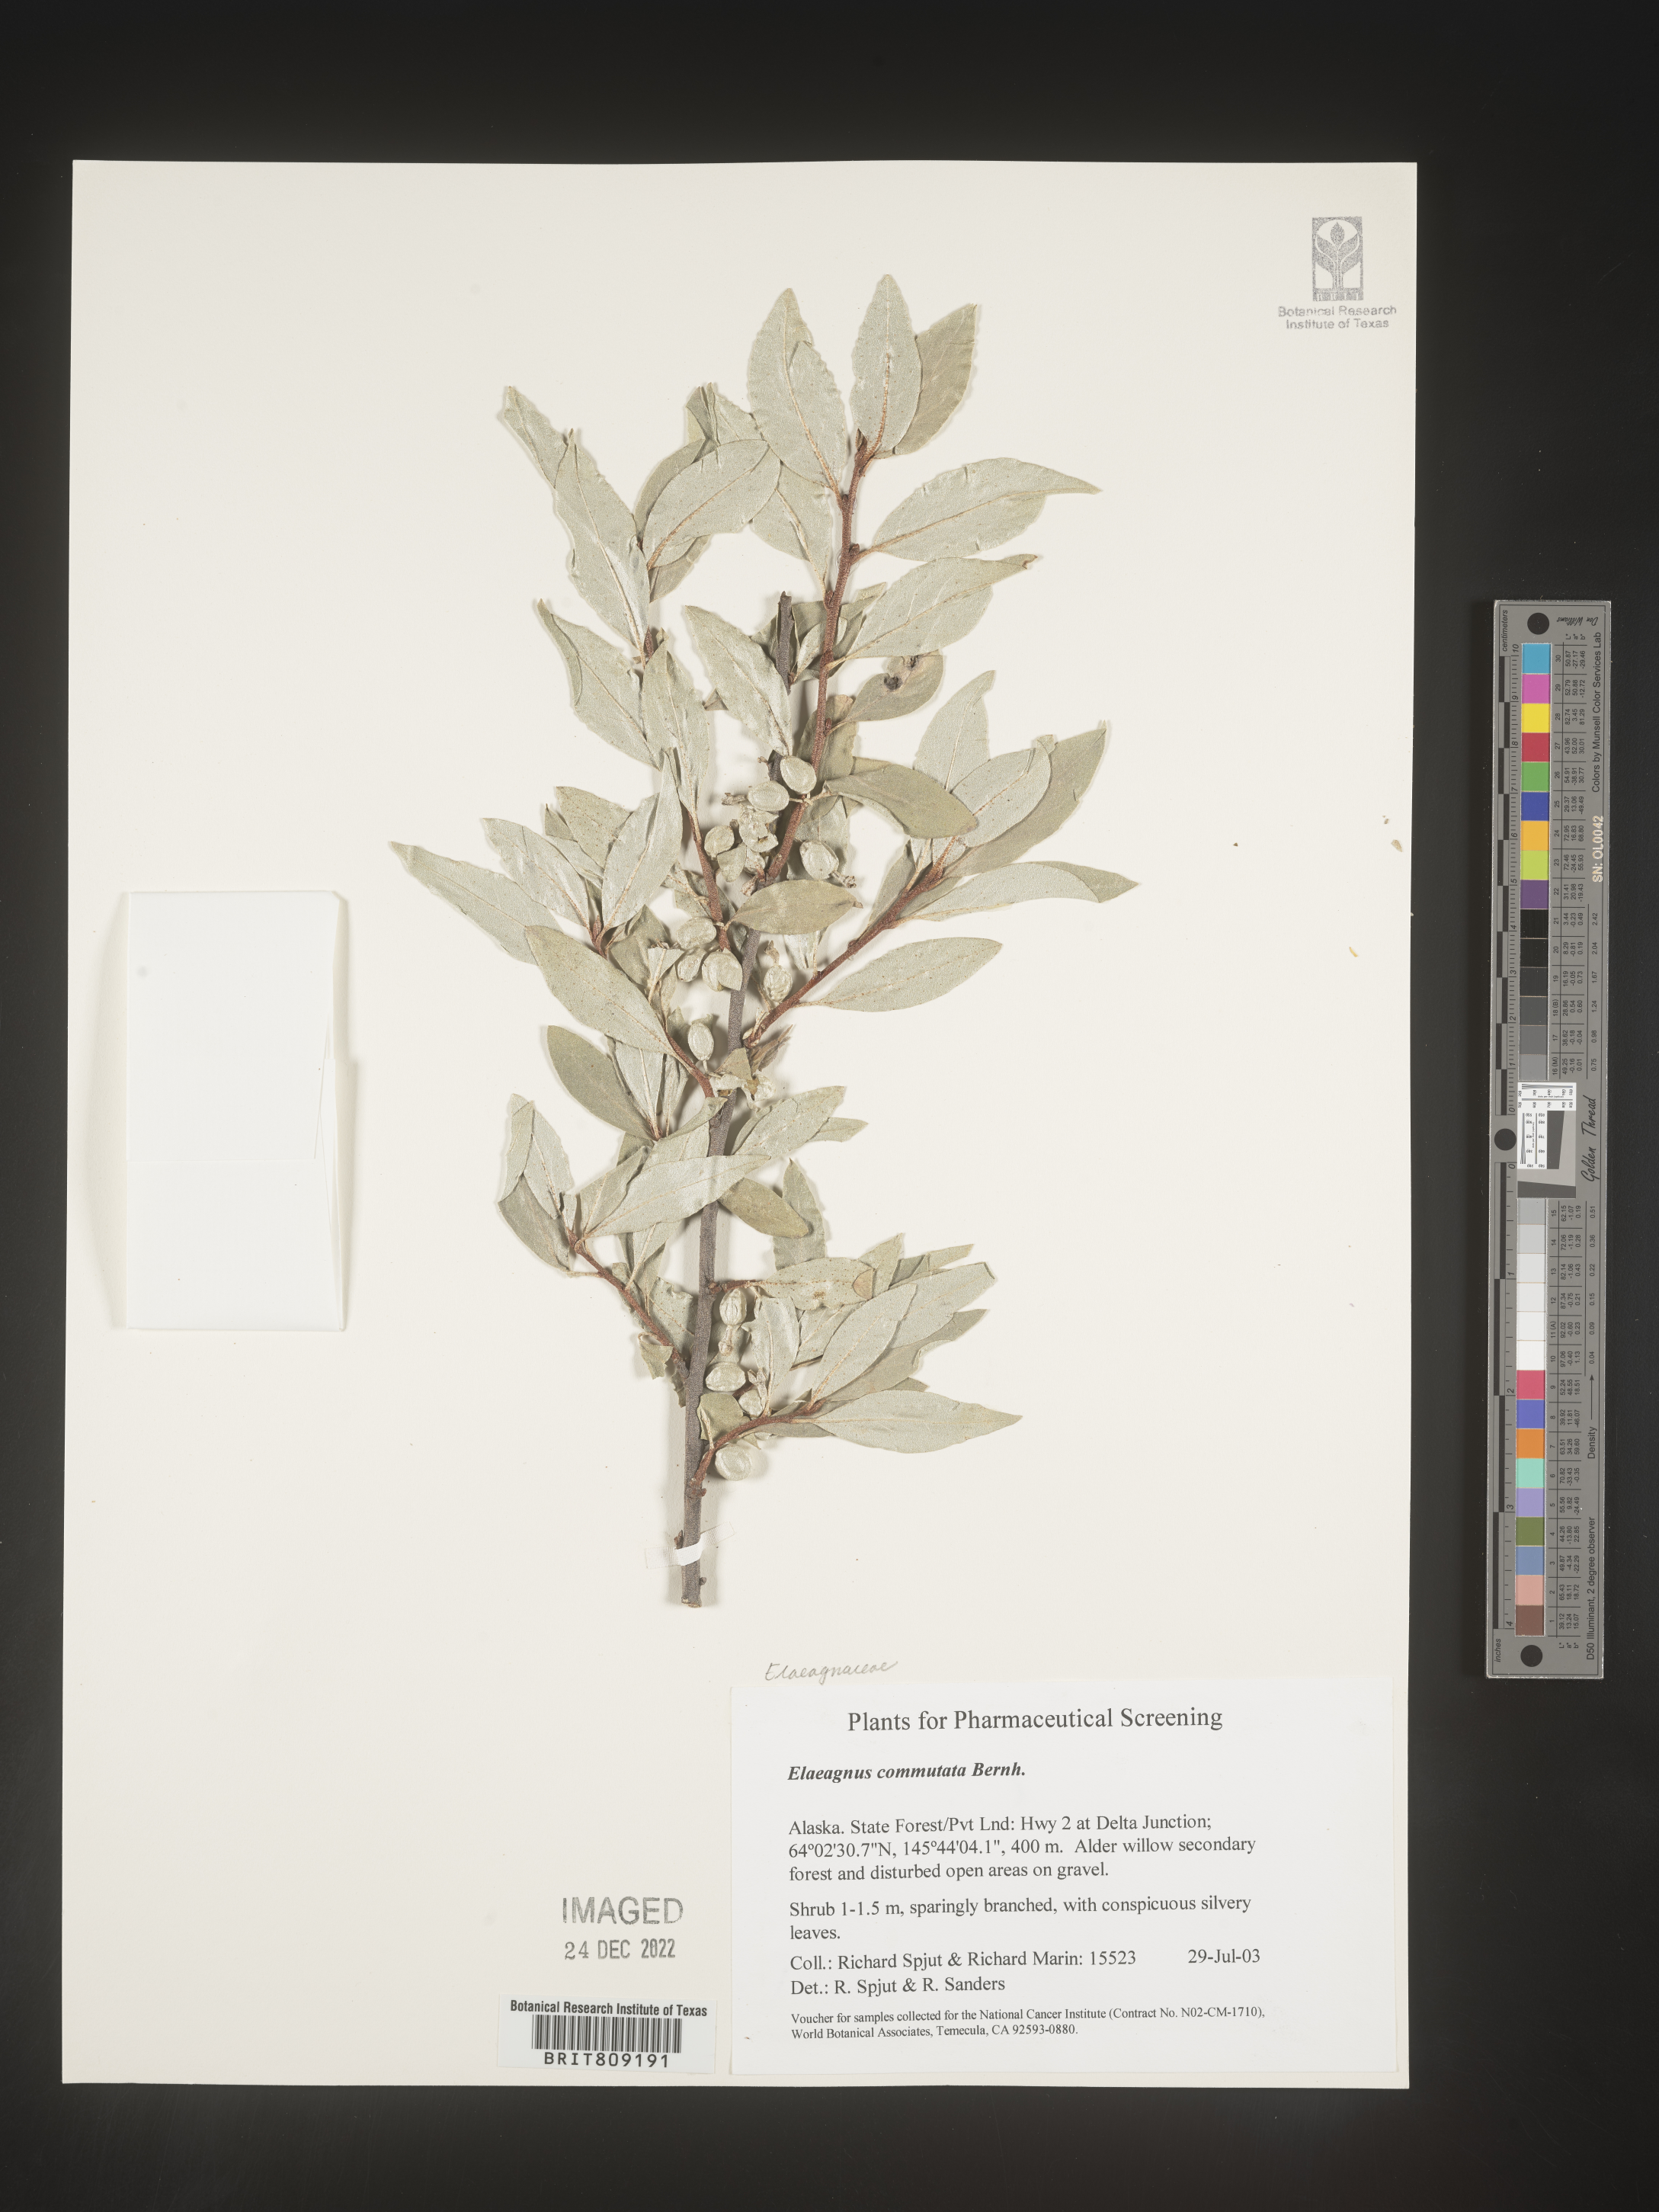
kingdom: Plantae
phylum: Tracheophyta
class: Magnoliopsida
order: Rosales
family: Elaeagnaceae
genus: Elaeagnus
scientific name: Elaeagnus
